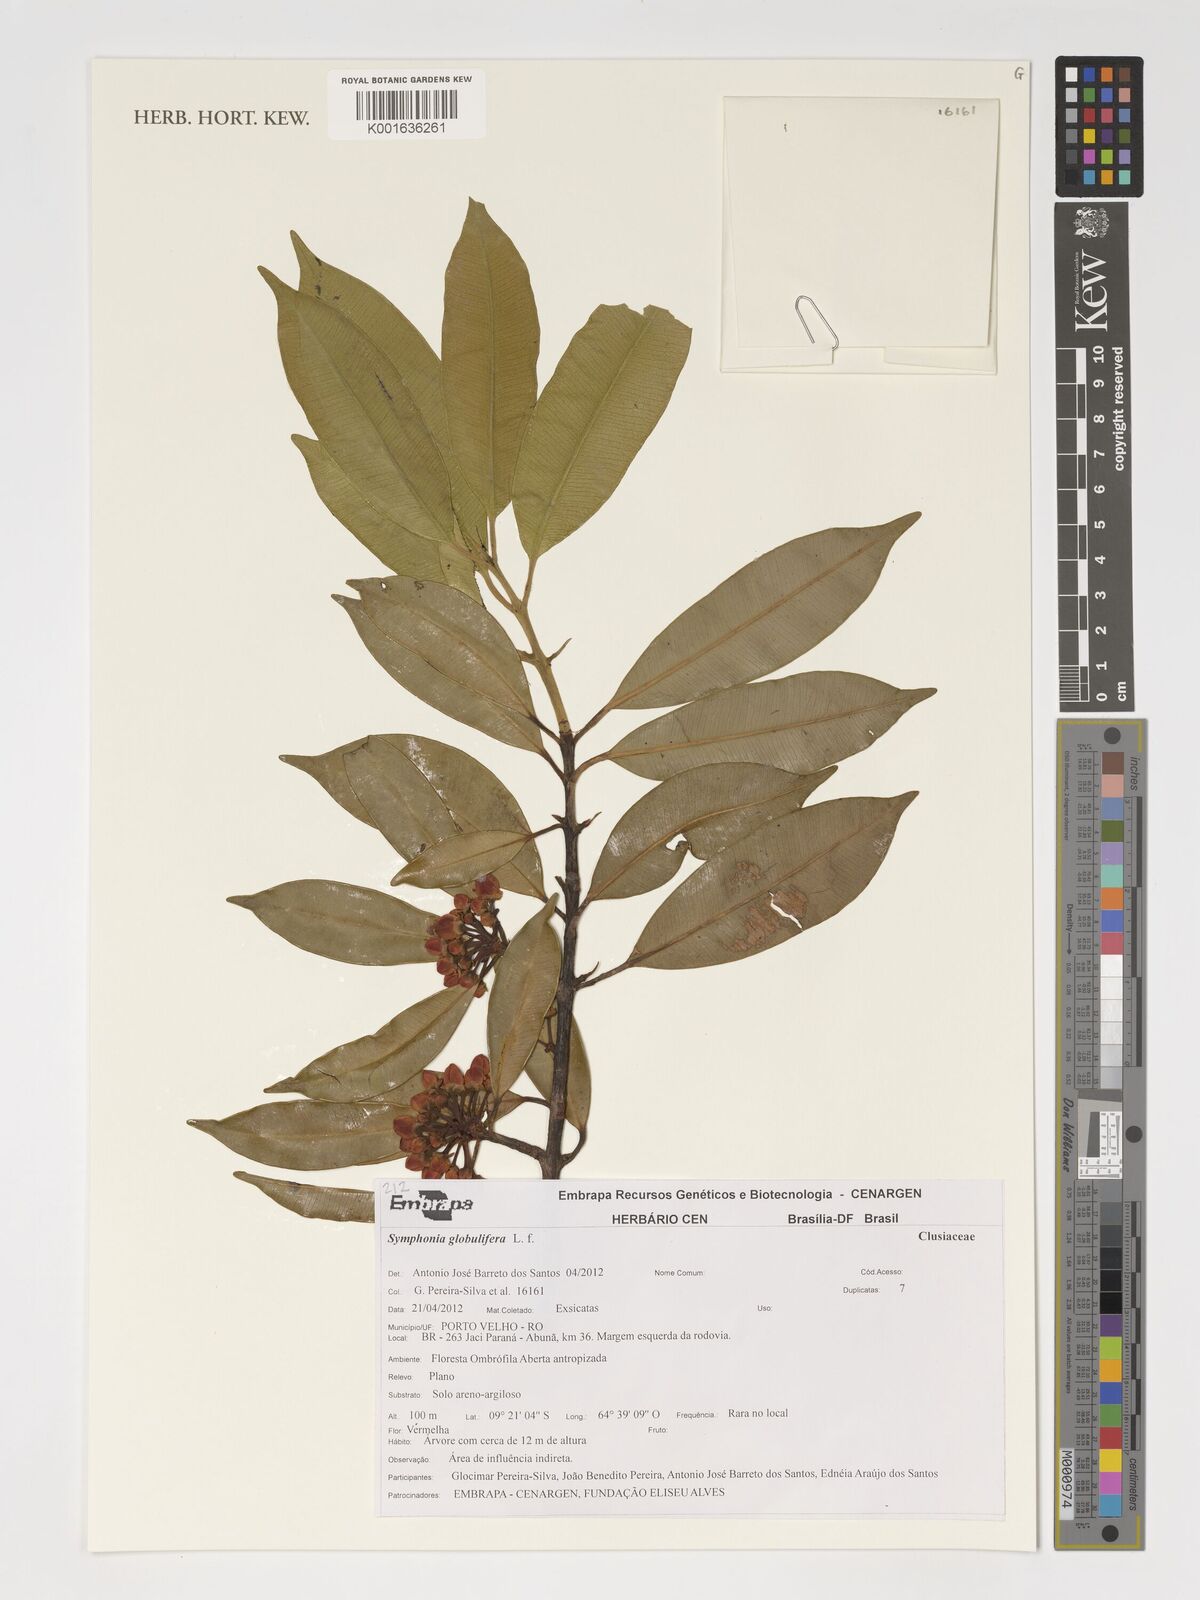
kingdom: Plantae
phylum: Tracheophyta
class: Magnoliopsida
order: Malpighiales
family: Clusiaceae
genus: Symphonia
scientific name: Symphonia globulifera
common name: Boarwood
